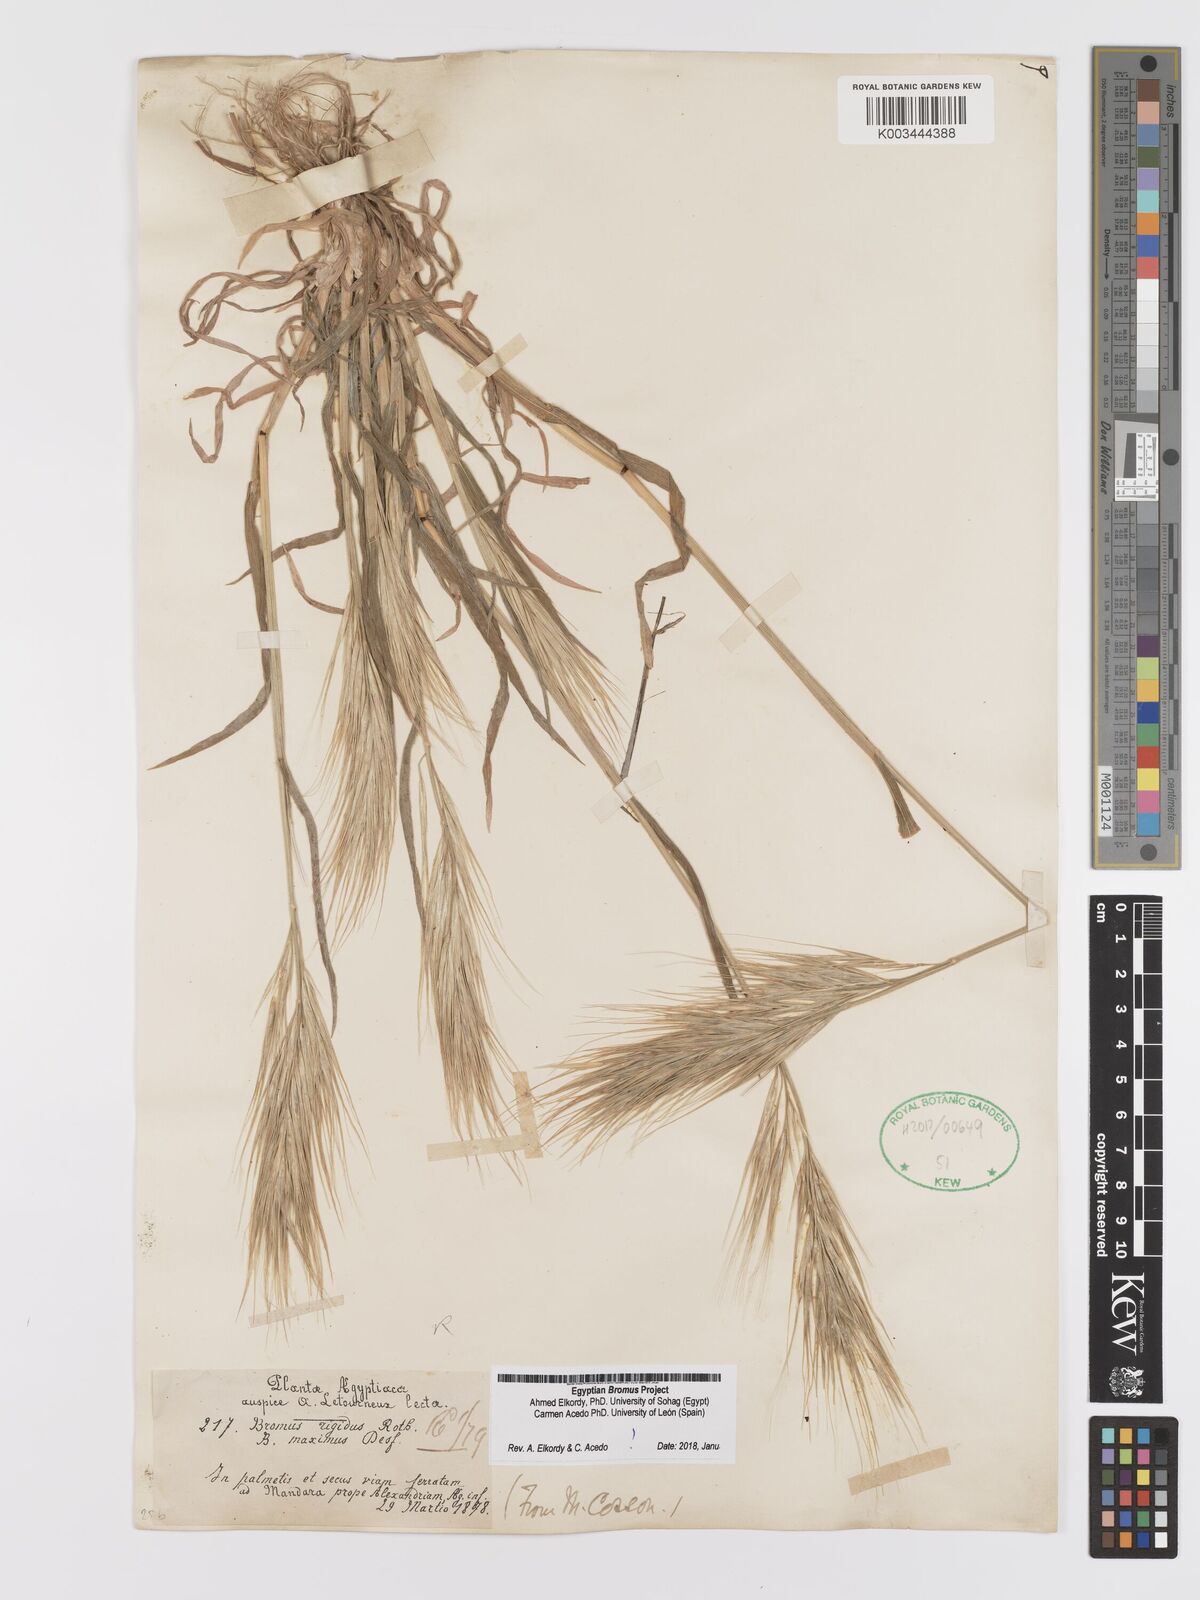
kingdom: Plantae
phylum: Tracheophyta
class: Liliopsida
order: Poales
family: Poaceae
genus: Bromus
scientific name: Bromus
